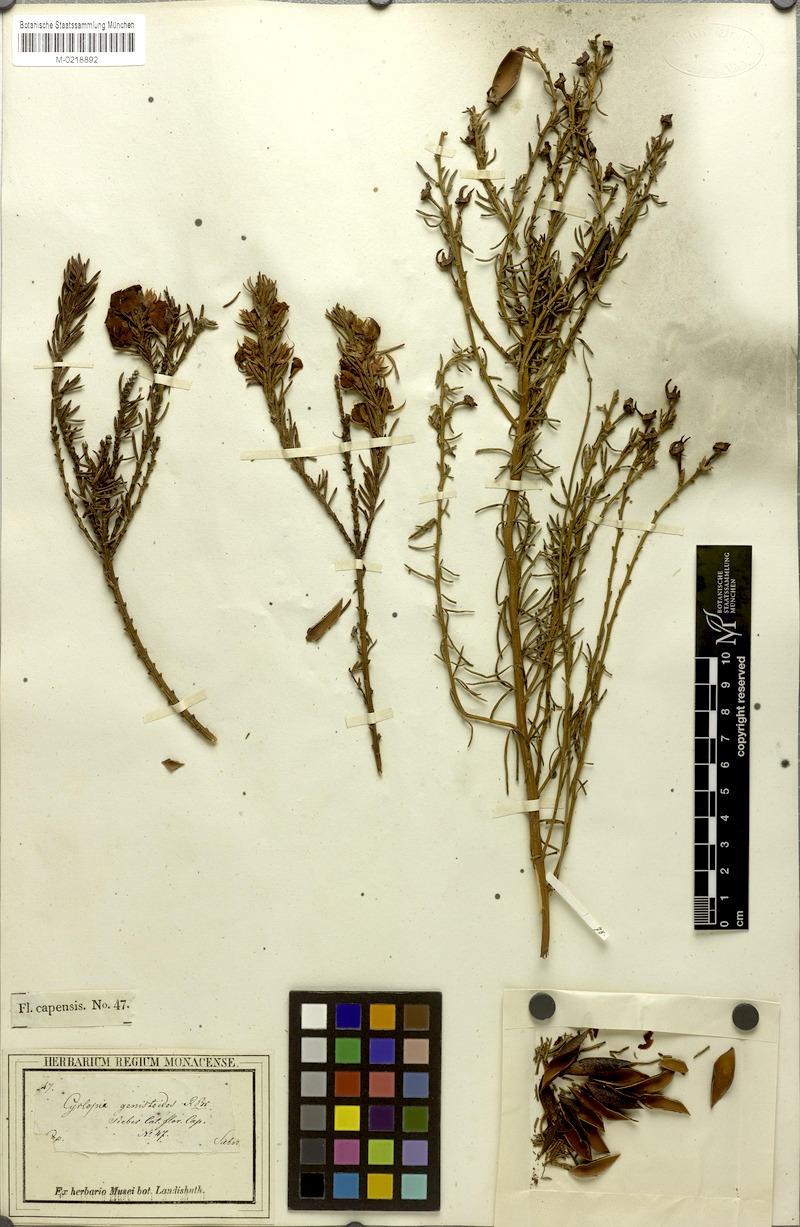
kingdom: Plantae
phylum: Tracheophyta
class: Magnoliopsida
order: Fabales
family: Fabaceae
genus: Cyclopia
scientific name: Cyclopia genistoides
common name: Honeybush tea
